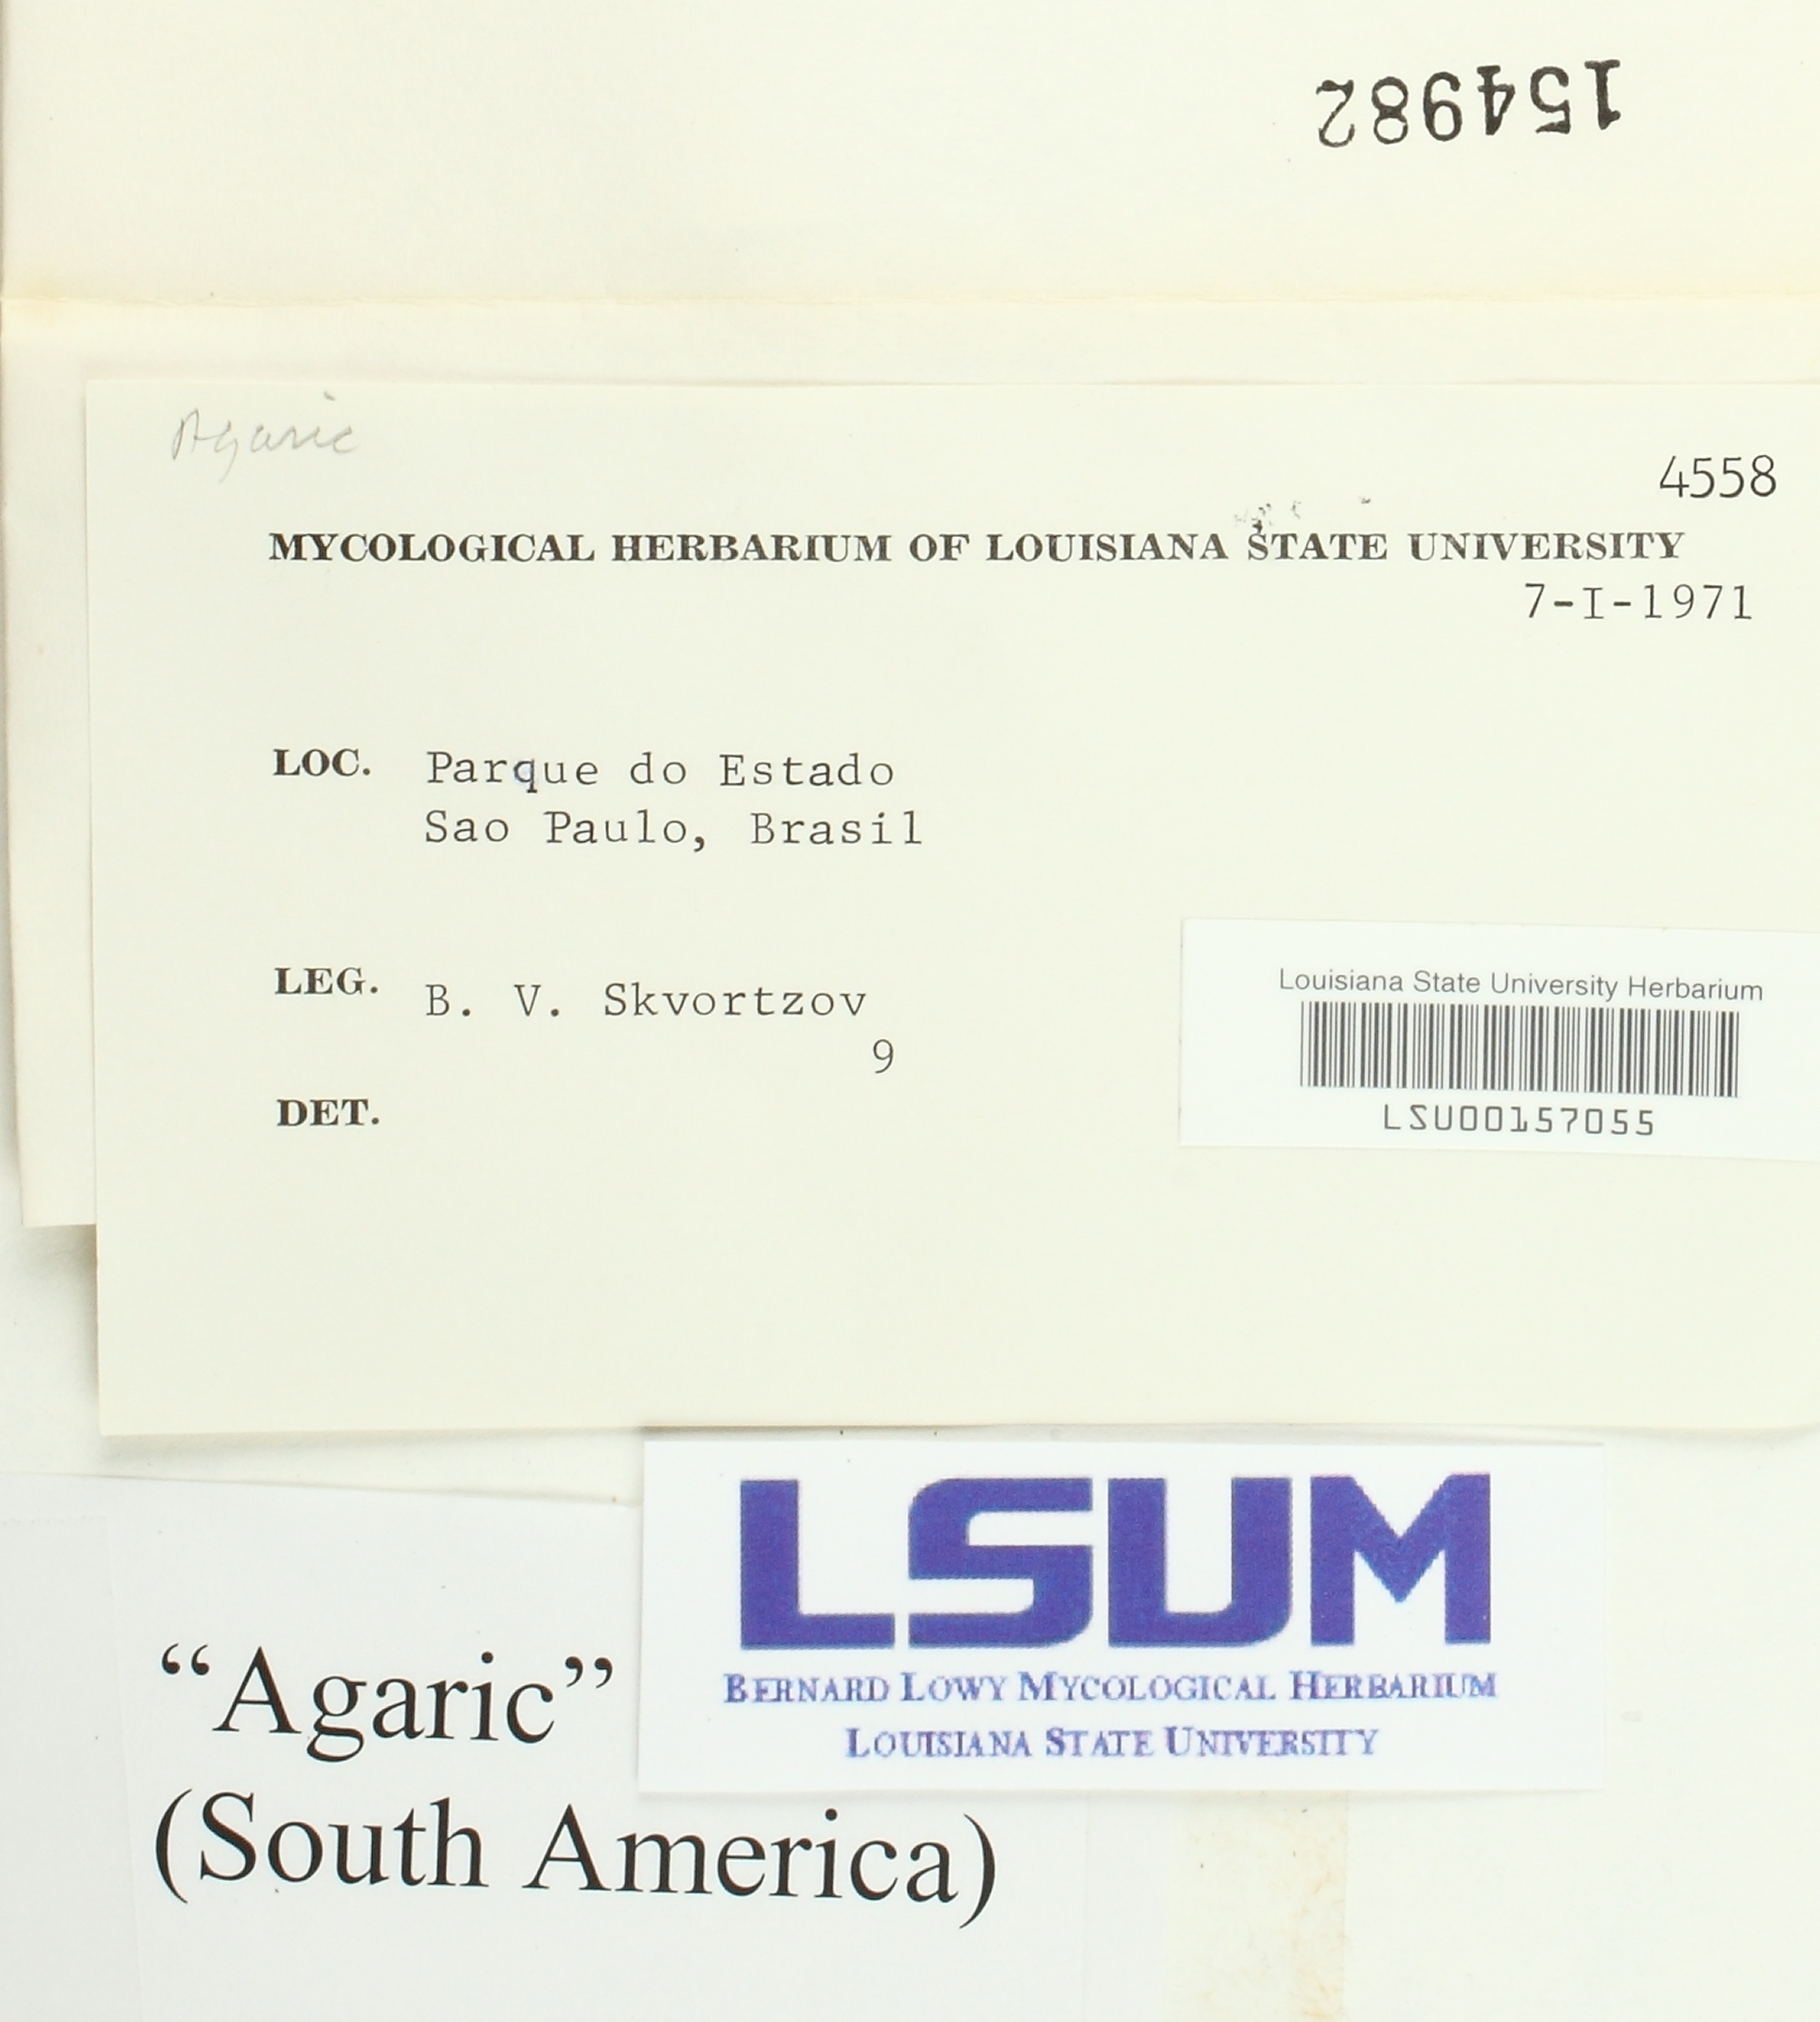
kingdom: Fungi
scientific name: Fungi
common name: Fungi
